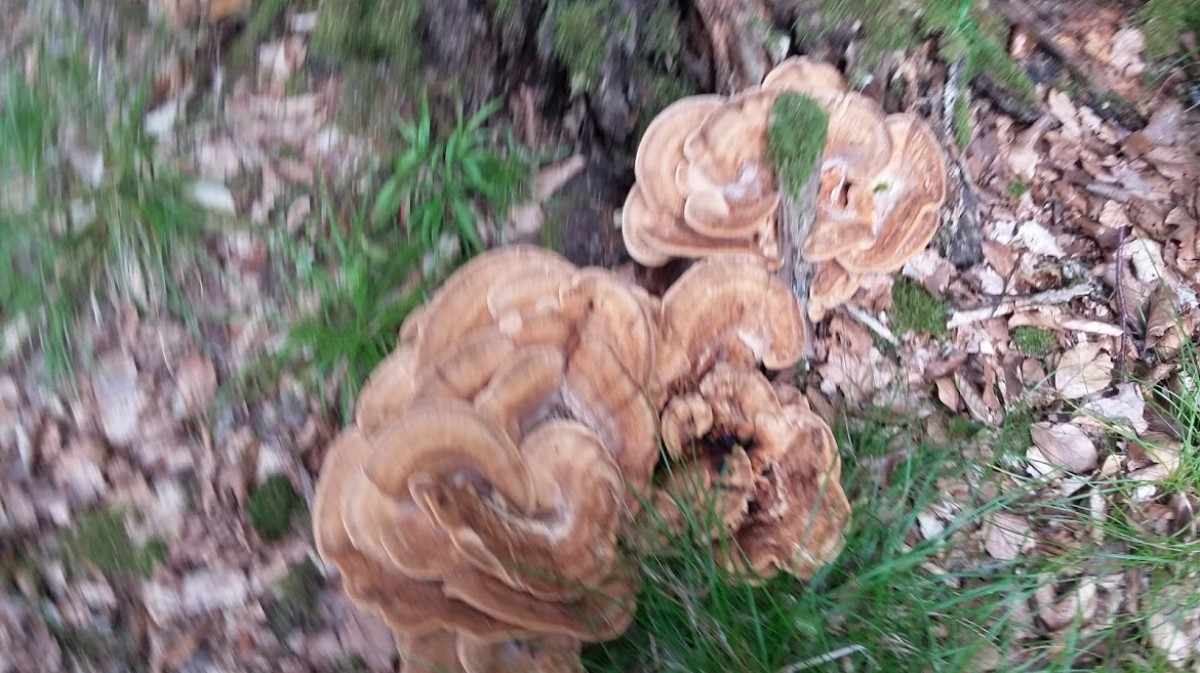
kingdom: Fungi
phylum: Basidiomycota
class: Agaricomycetes
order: Polyporales
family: Meripilaceae
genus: Meripilus
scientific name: Meripilus giganteus
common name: kæmpeporesvamp
